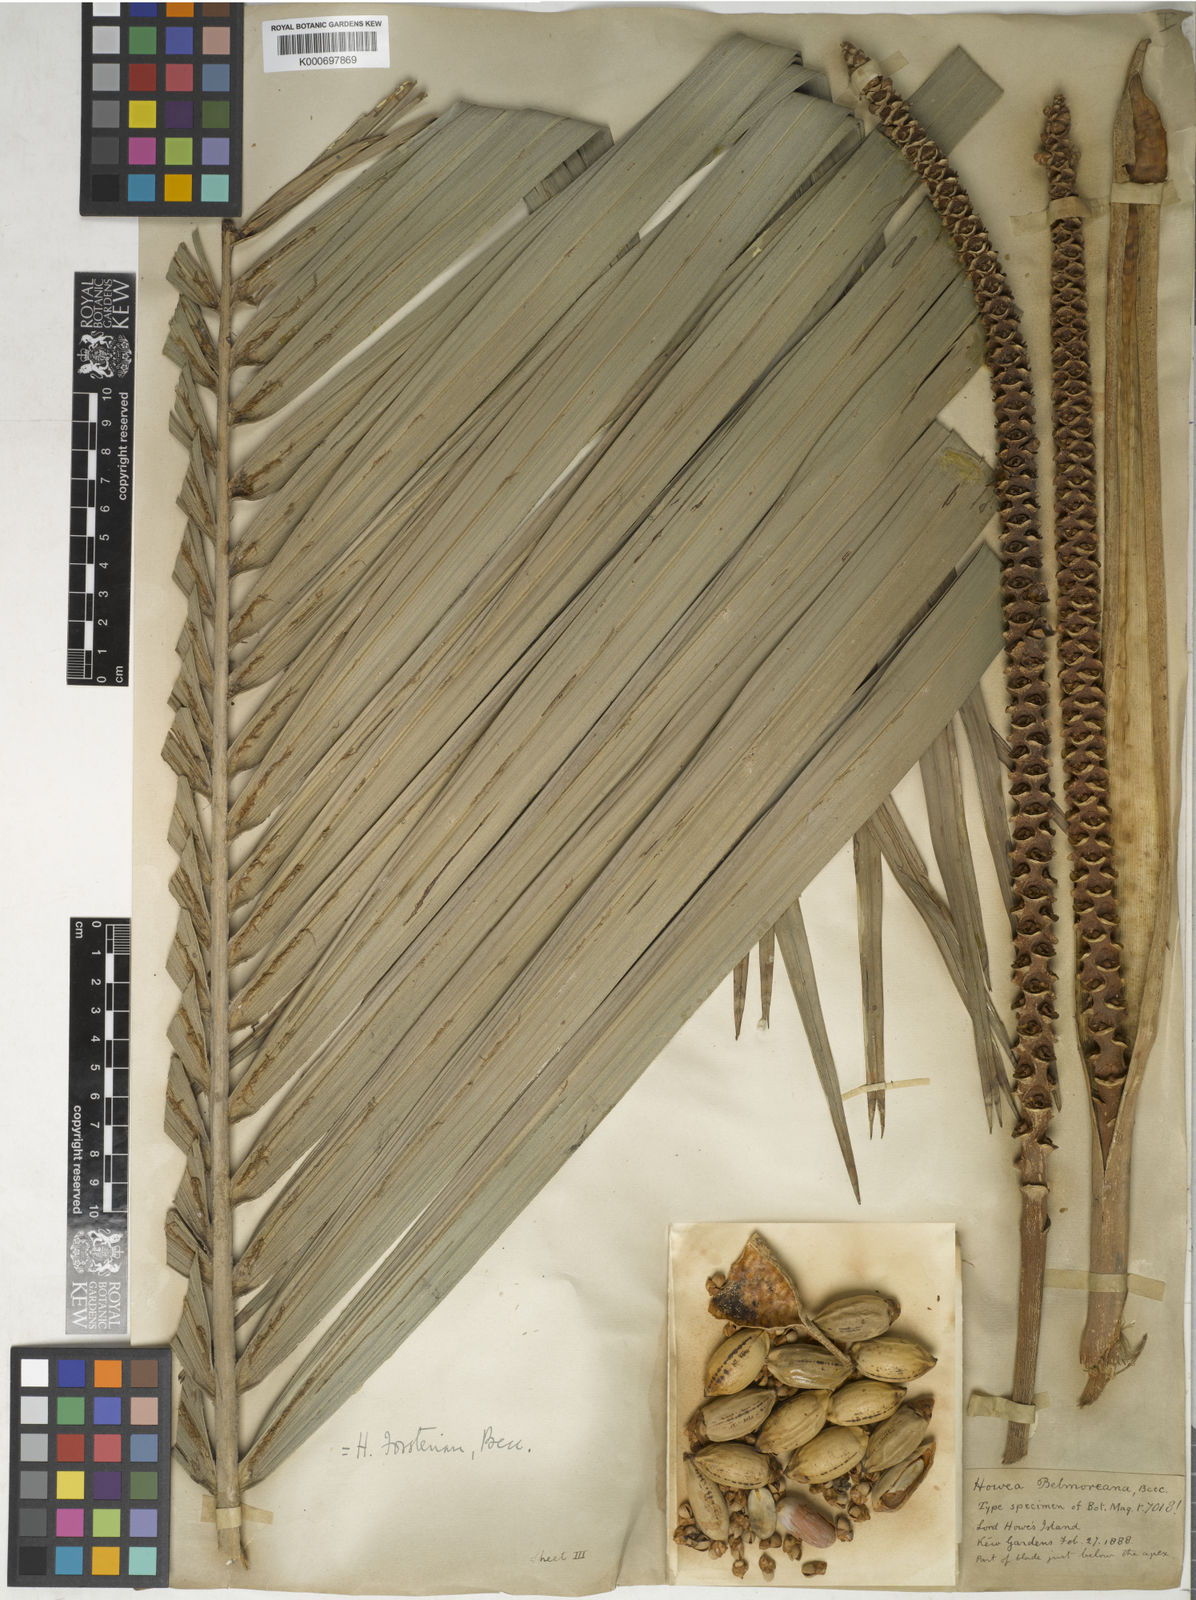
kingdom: Plantae
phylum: Tracheophyta
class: Liliopsida
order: Arecales
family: Arecaceae
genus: Howea
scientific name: Howea forsteriana
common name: Kentia palm
